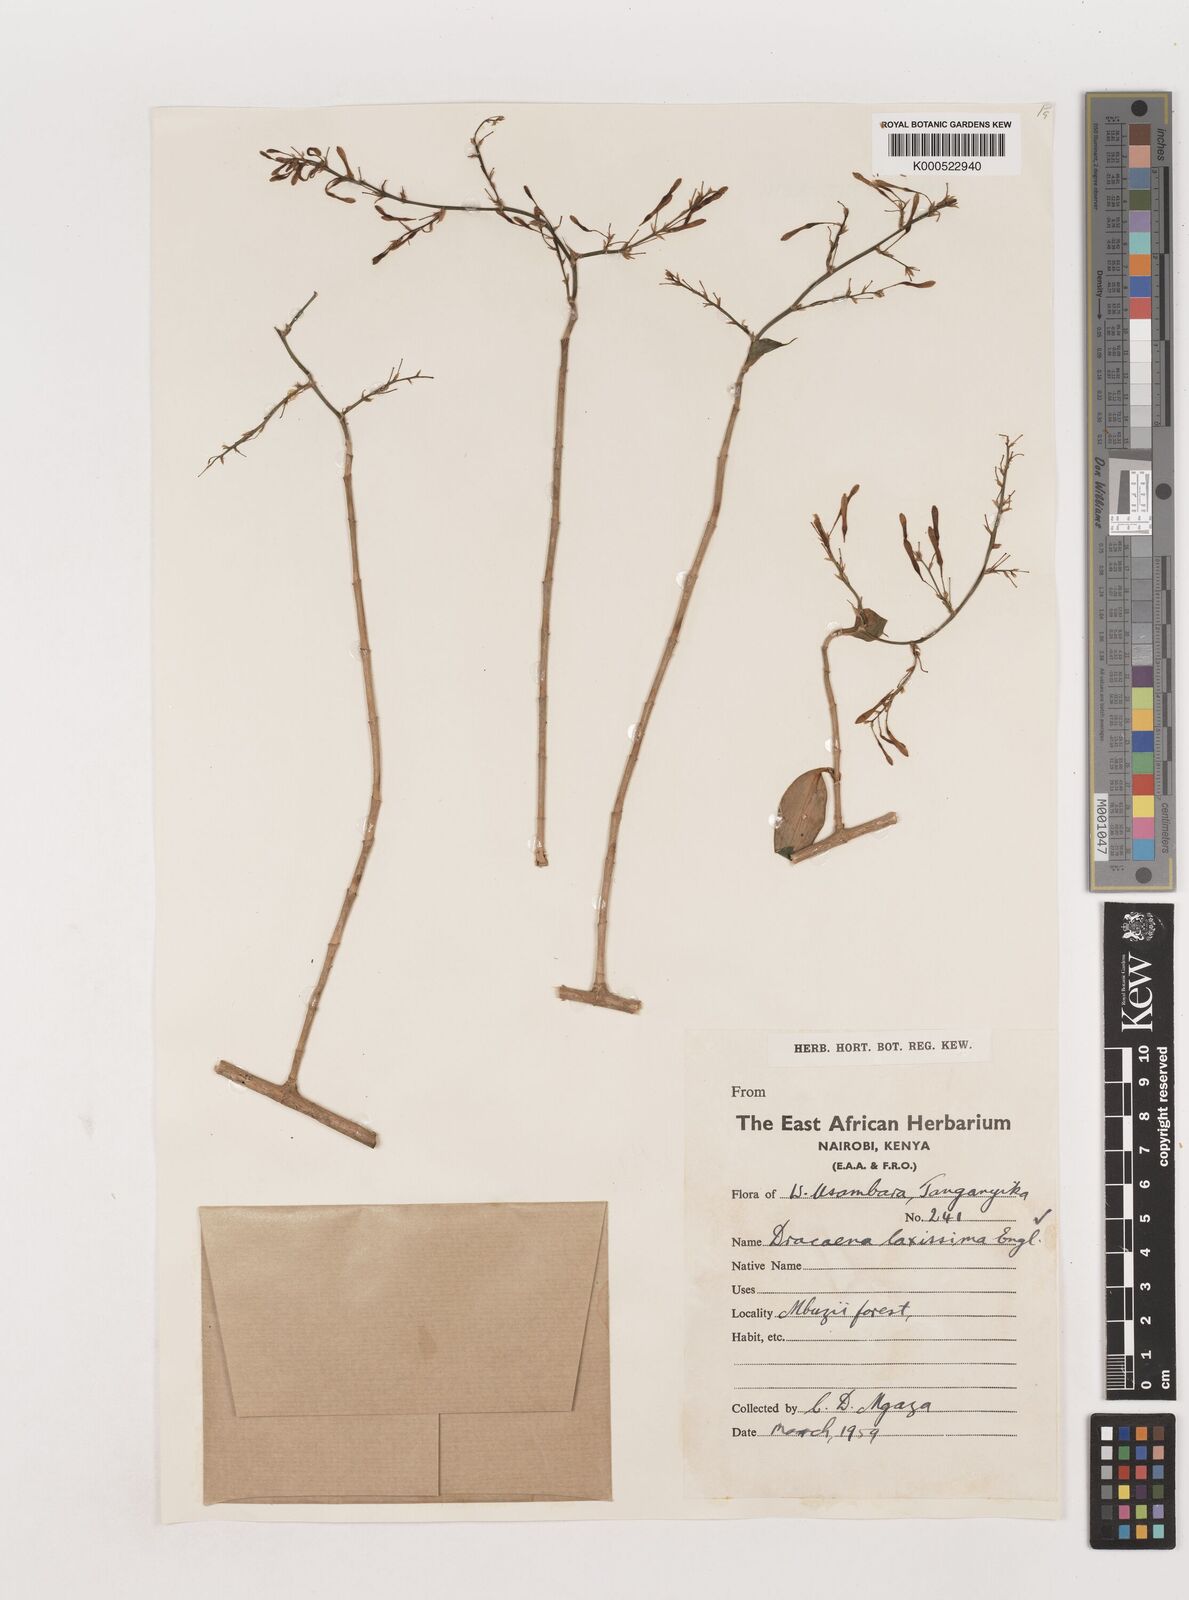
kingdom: Plantae
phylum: Tracheophyta
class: Liliopsida
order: Asparagales
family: Asparagaceae
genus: Dracaena
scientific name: Dracaena laxissima
